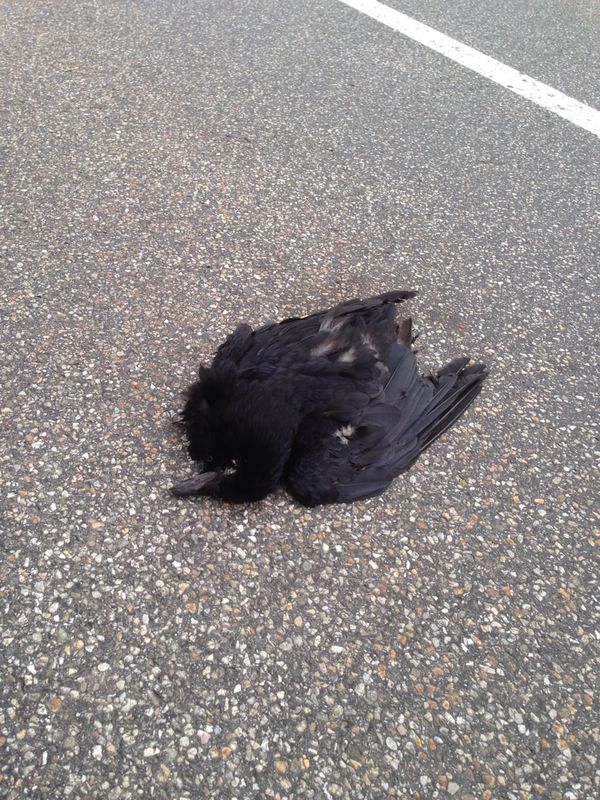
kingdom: Animalia
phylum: Chordata
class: Aves
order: Passeriformes
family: Corvidae
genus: Corvus
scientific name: Corvus
